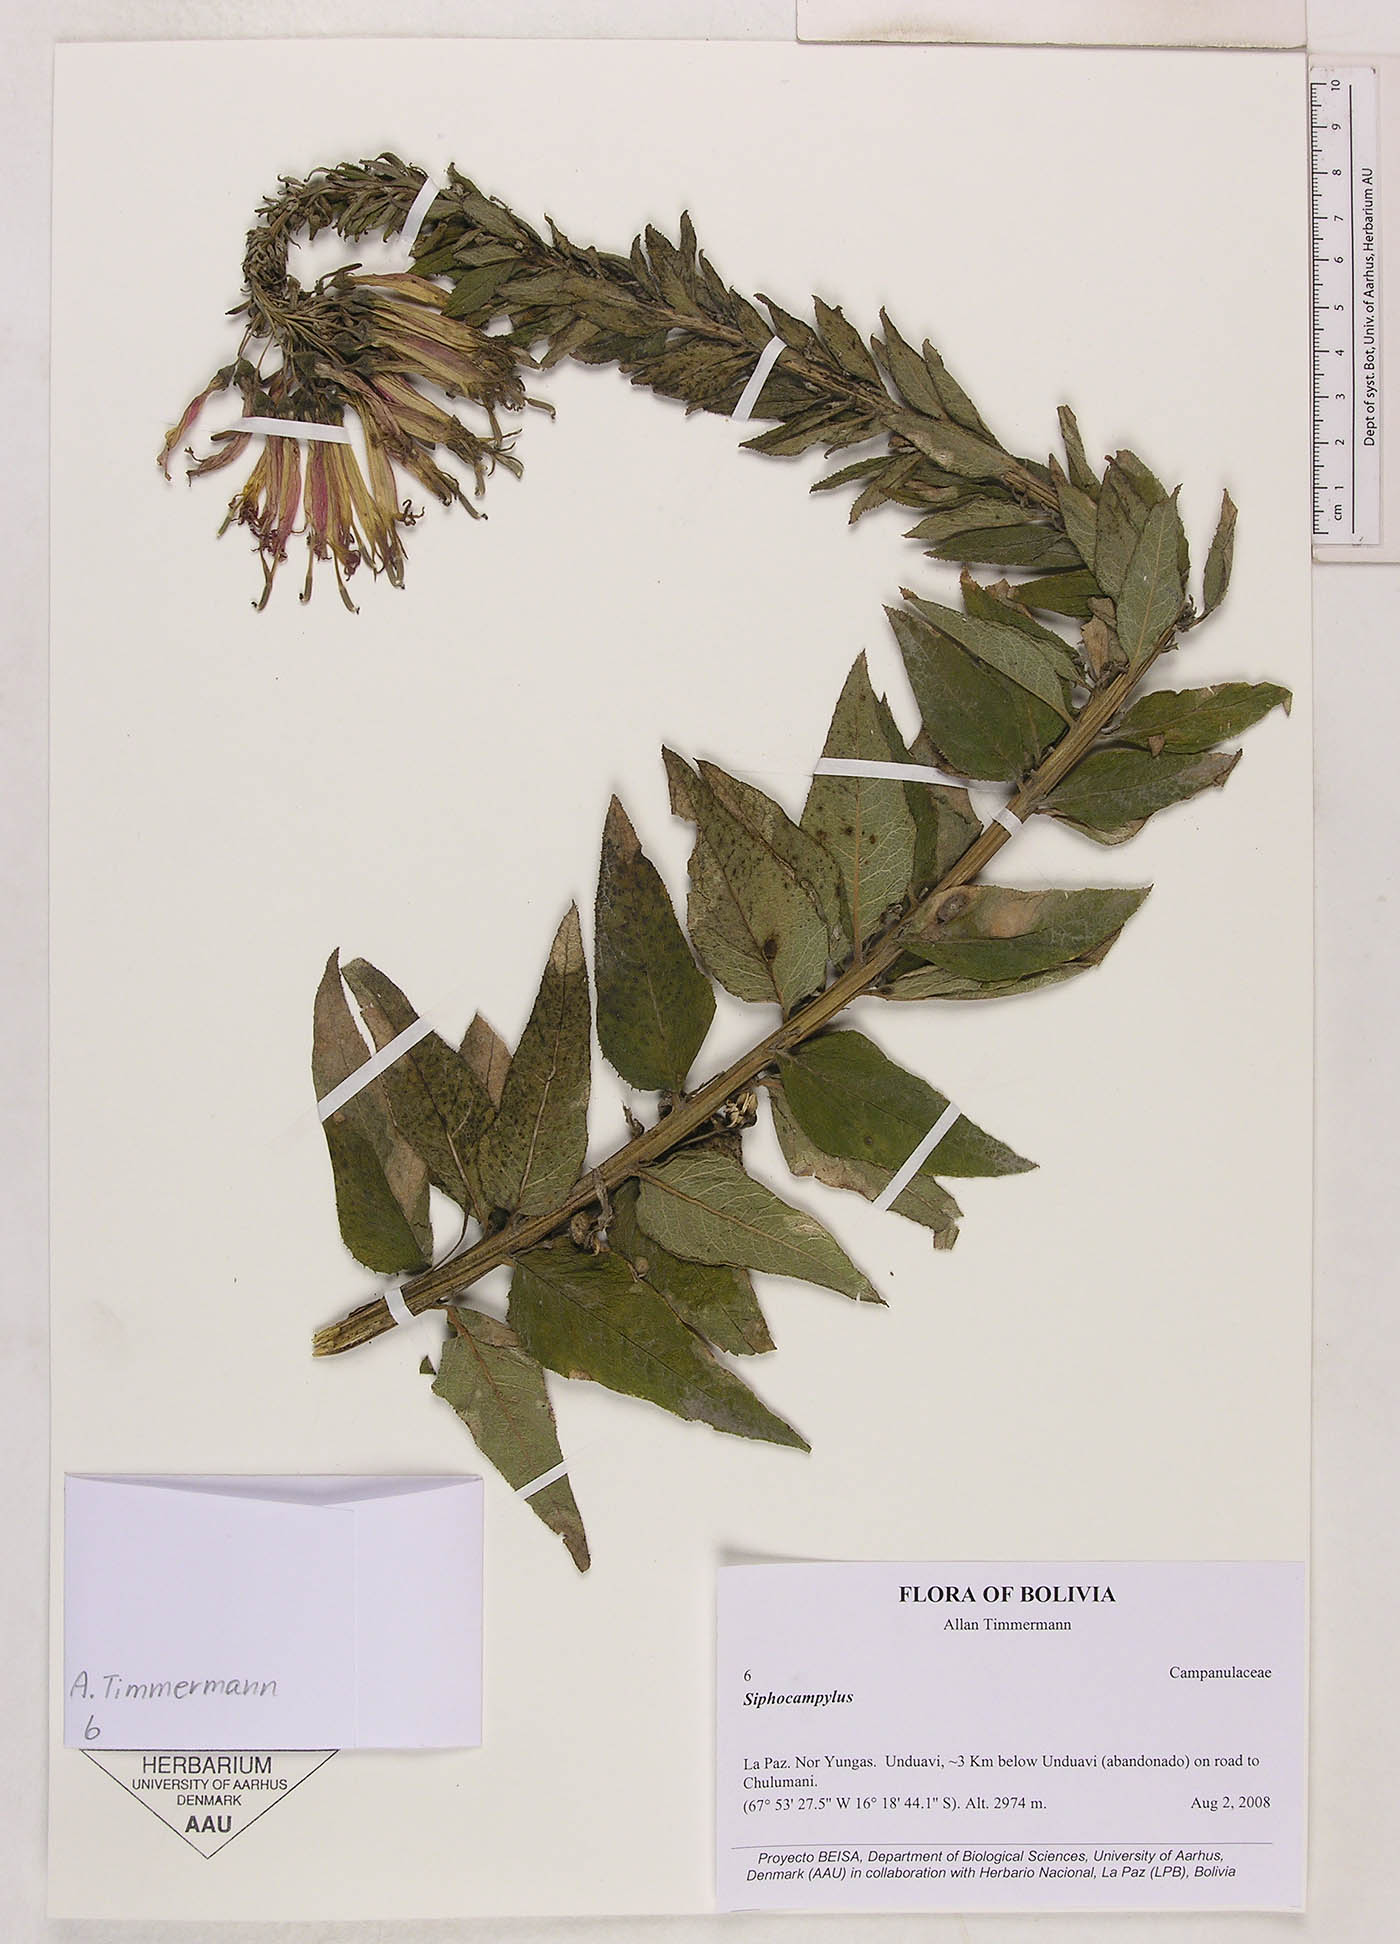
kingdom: Plantae
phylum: Tracheophyta
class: Magnoliopsida
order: Asterales
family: Campanulaceae
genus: Siphocampylus
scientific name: Siphocampylus
